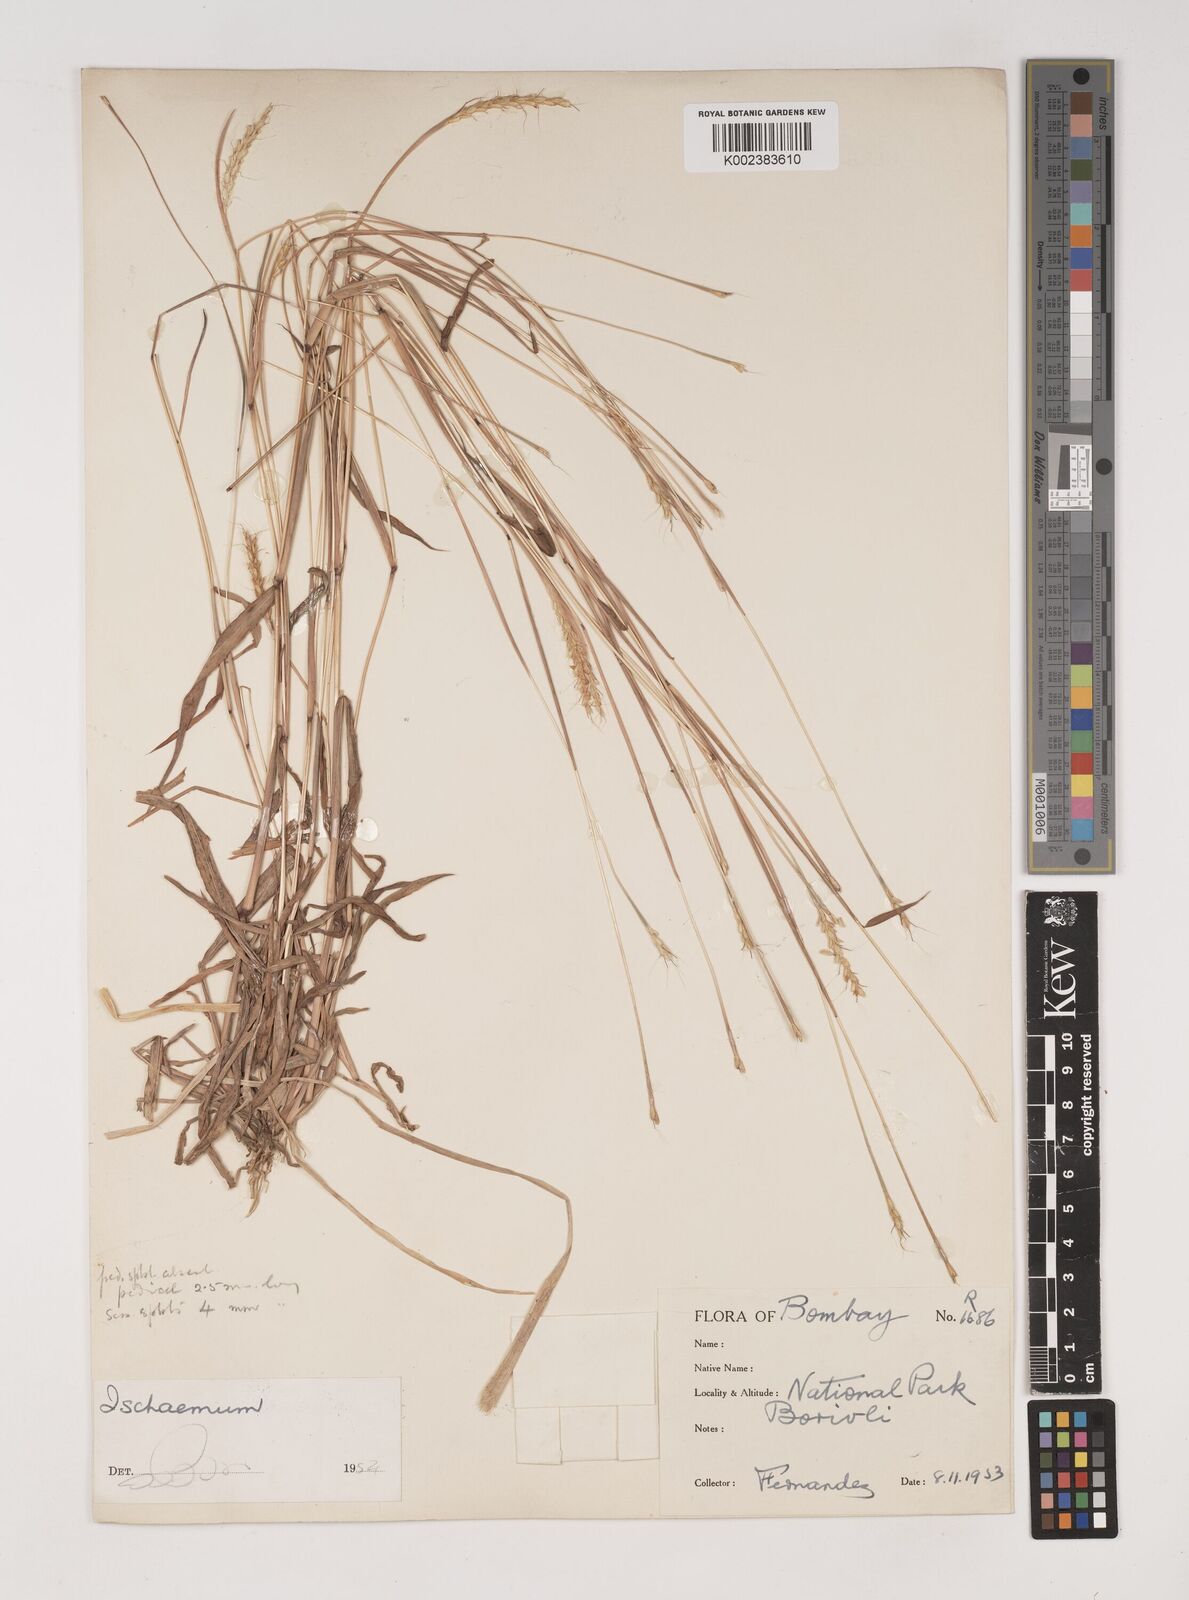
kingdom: Plantae
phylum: Tracheophyta
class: Liliopsida
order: Poales
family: Poaceae
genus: Ischaemum
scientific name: Ischaemum santapaui
